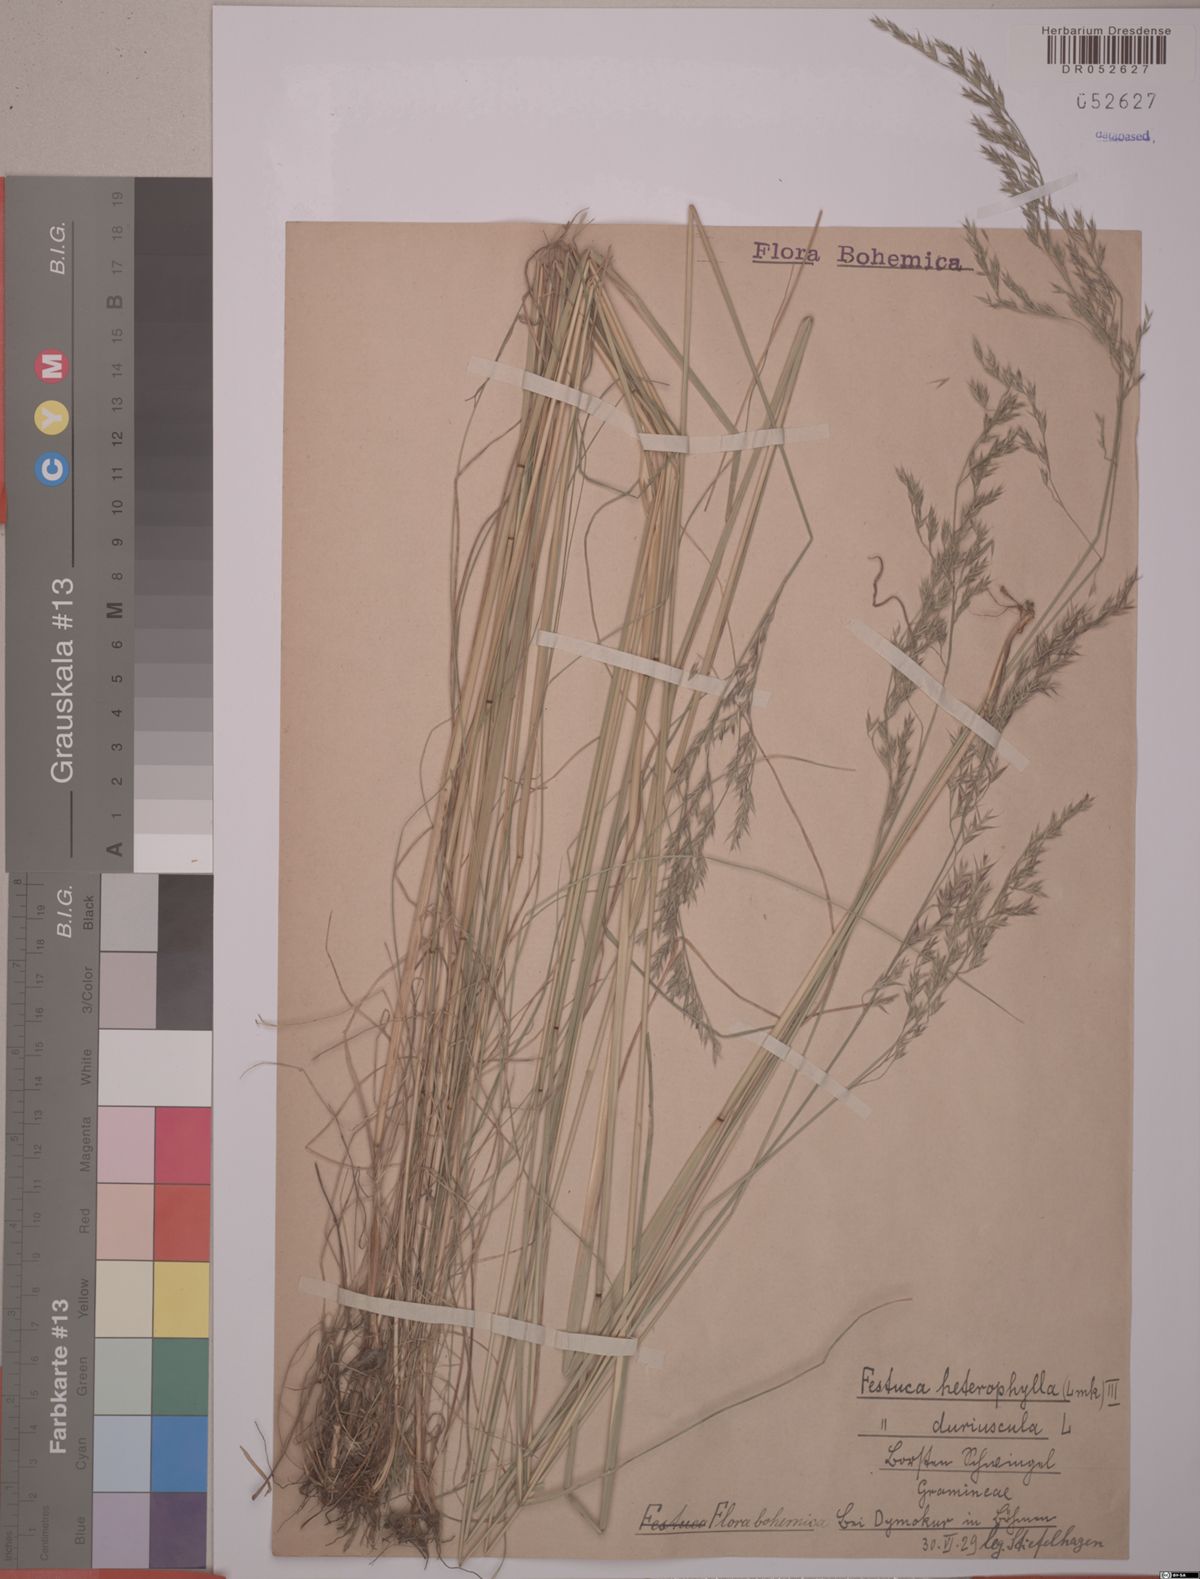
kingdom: Plantae
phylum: Tracheophyta
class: Liliopsida
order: Poales
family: Poaceae
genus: Festuca
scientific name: Festuca heterophylla
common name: Various-leaved fescue
